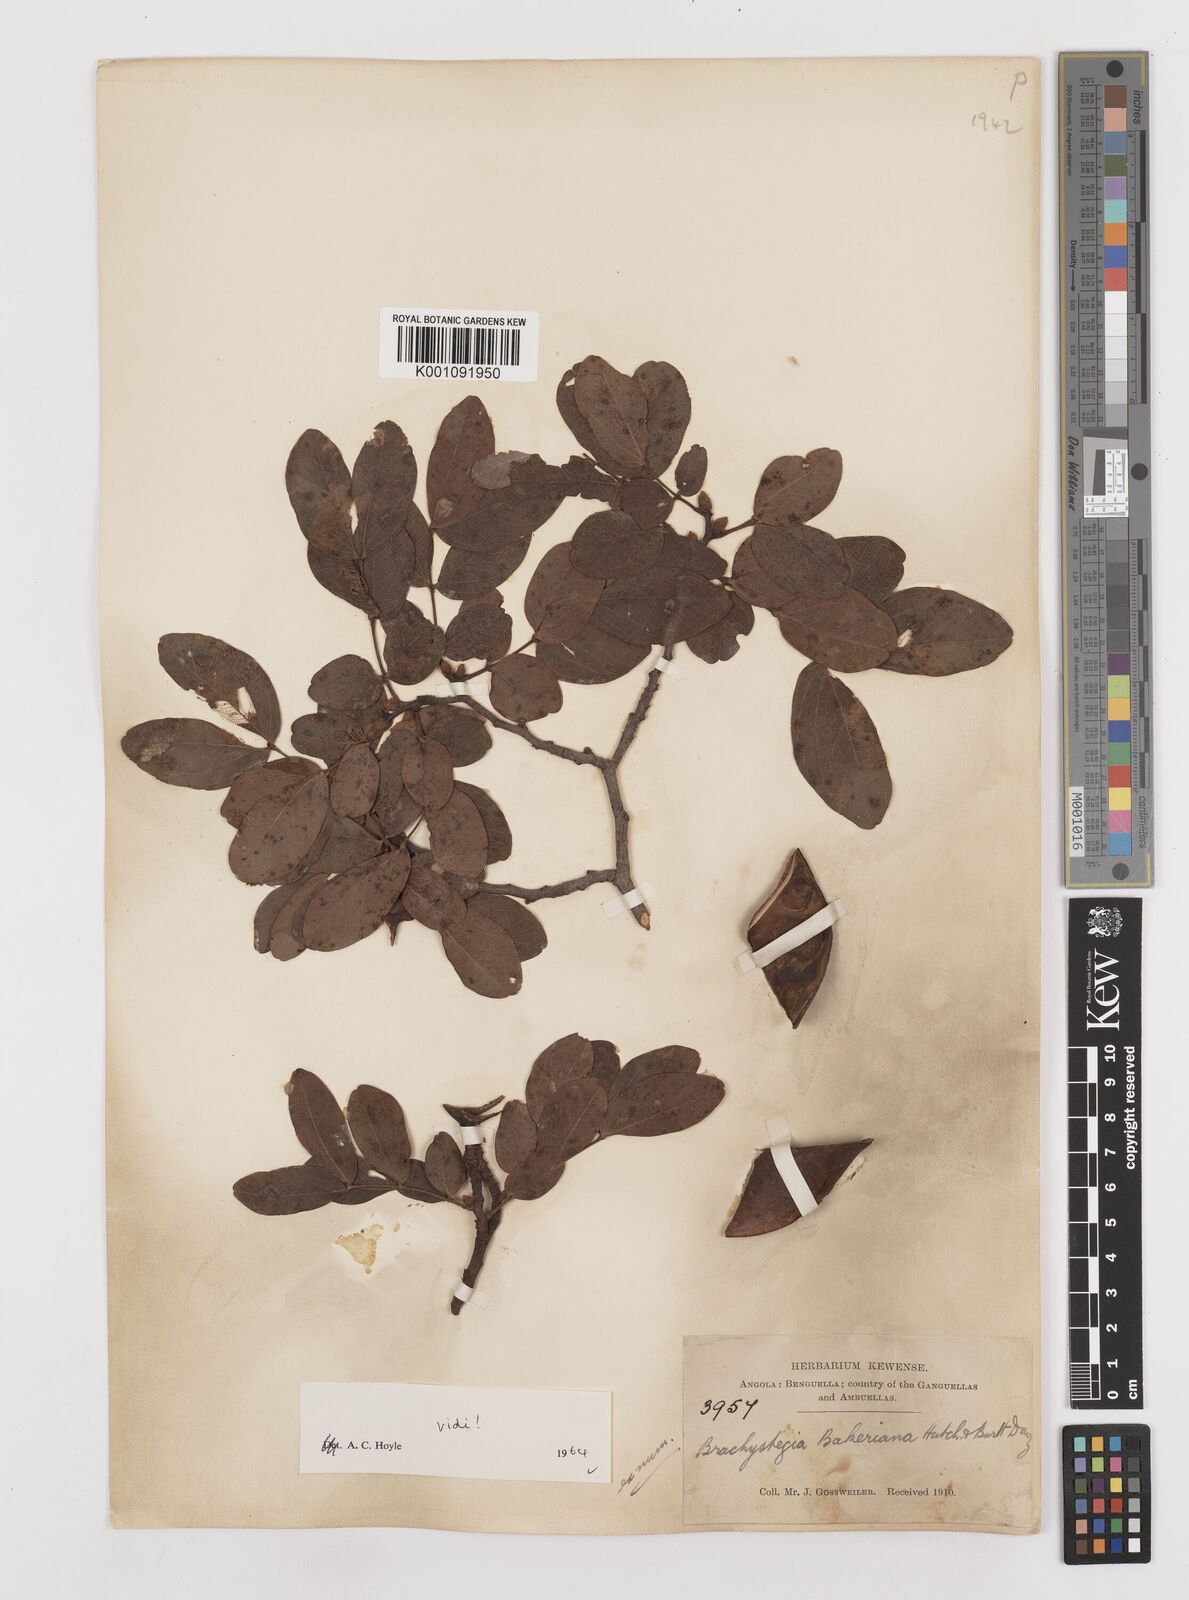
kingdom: Plantae
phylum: Tracheophyta
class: Magnoliopsida
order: Fabales
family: Fabaceae
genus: Brachystegia
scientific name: Brachystegia bakeriana
